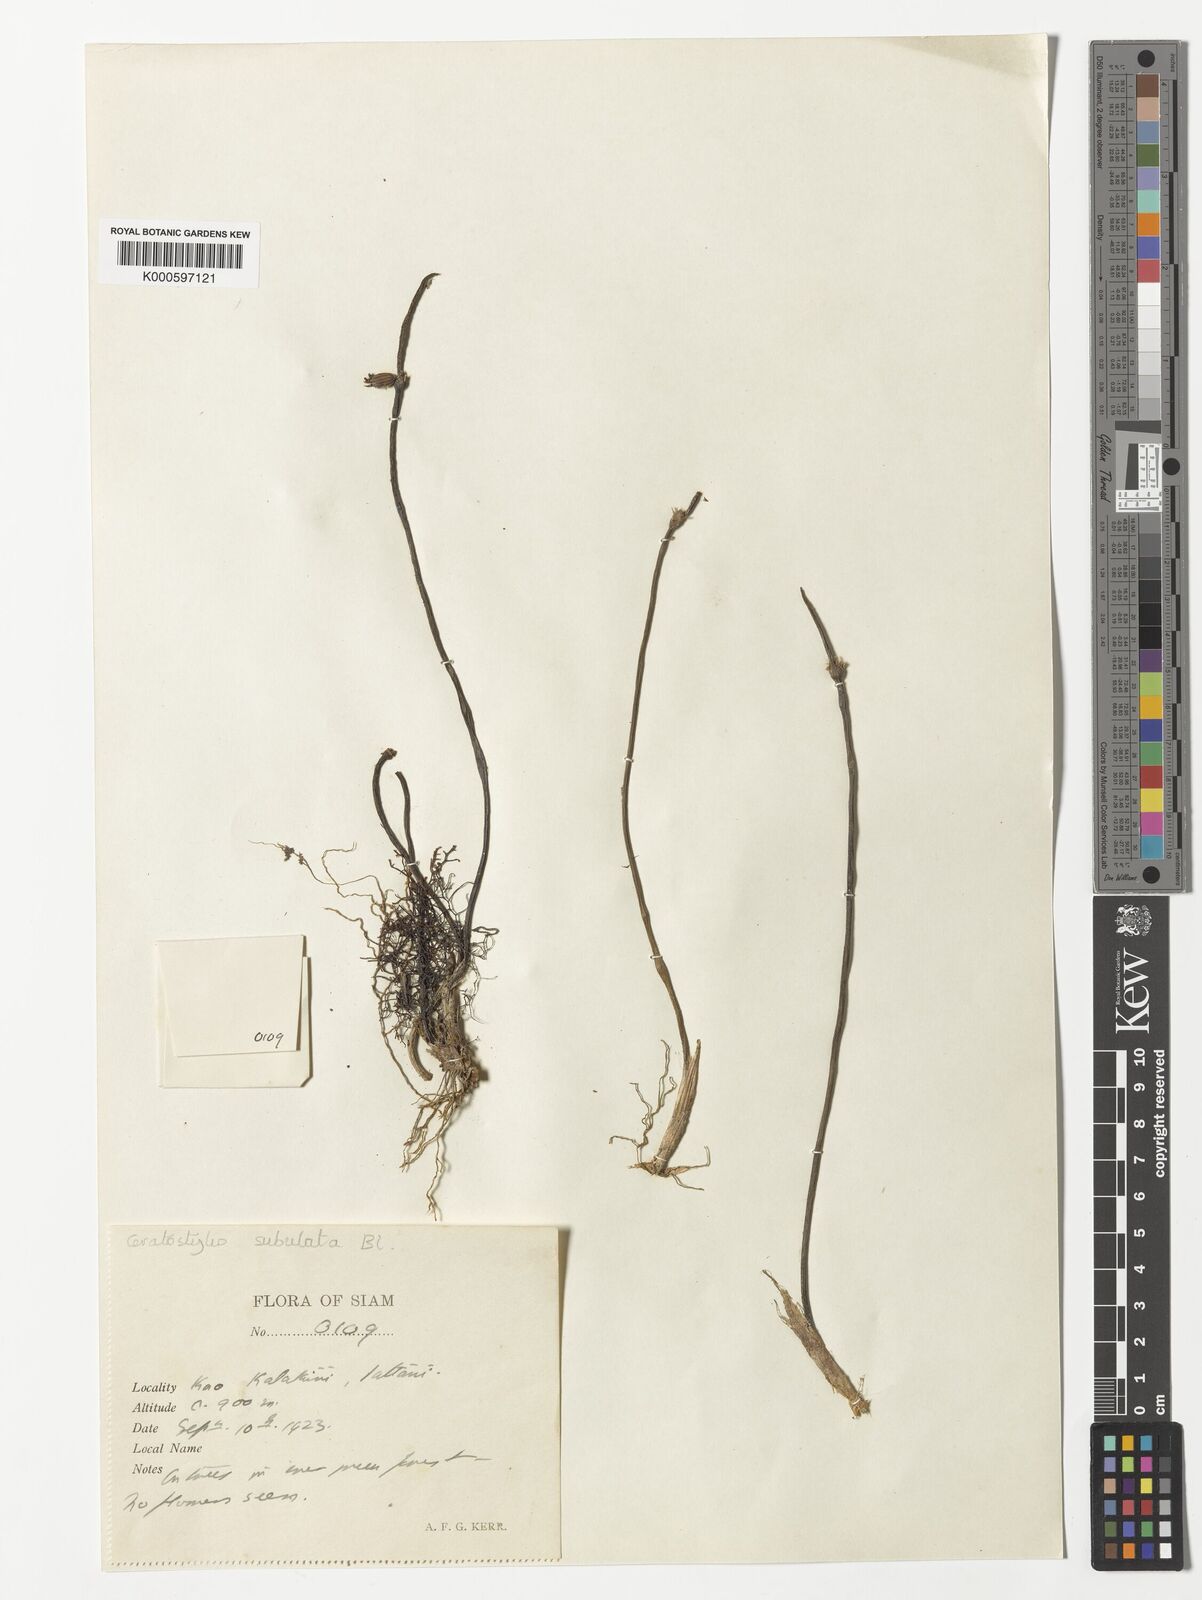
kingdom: Plantae
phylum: Tracheophyta
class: Liliopsida
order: Asparagales
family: Orchidaceae
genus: Ceratostylis
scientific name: Ceratostylis subulata
